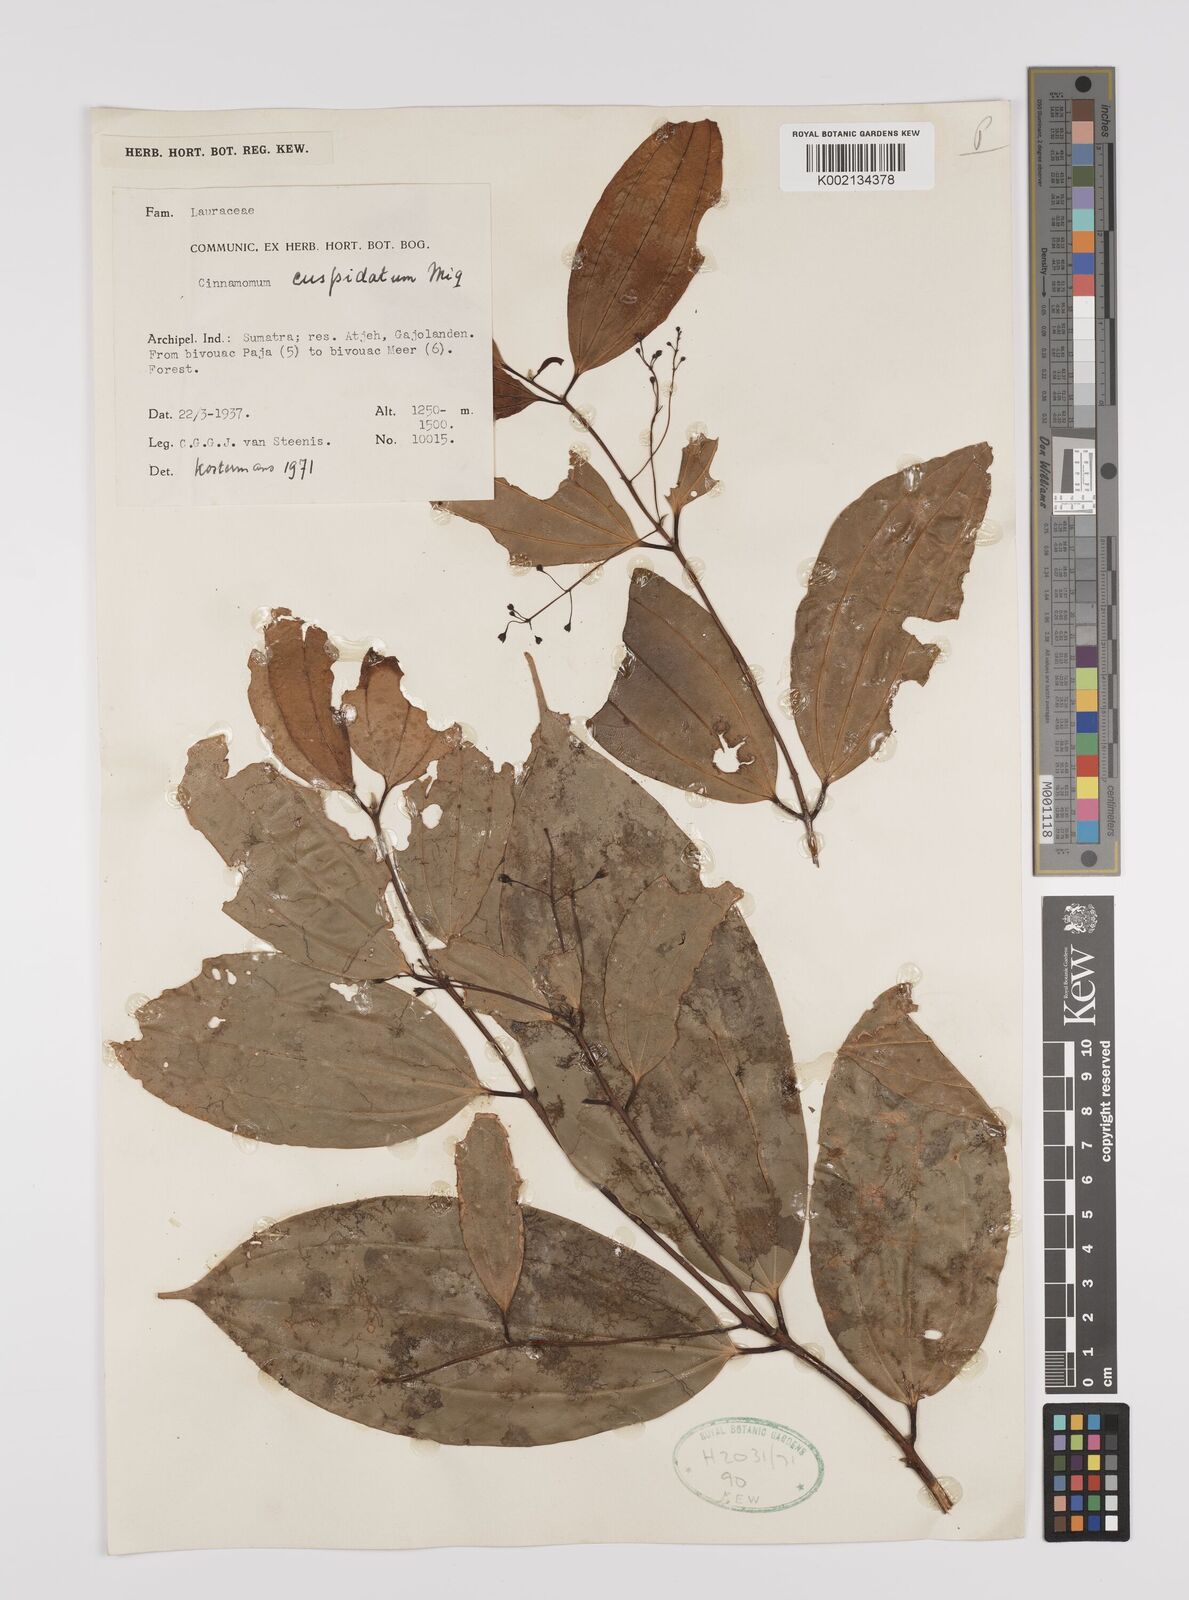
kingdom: Plantae
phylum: Tracheophyta
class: Magnoliopsida
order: Laurales
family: Lauraceae
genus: Cinnamomum
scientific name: Cinnamomum cuspidatum
